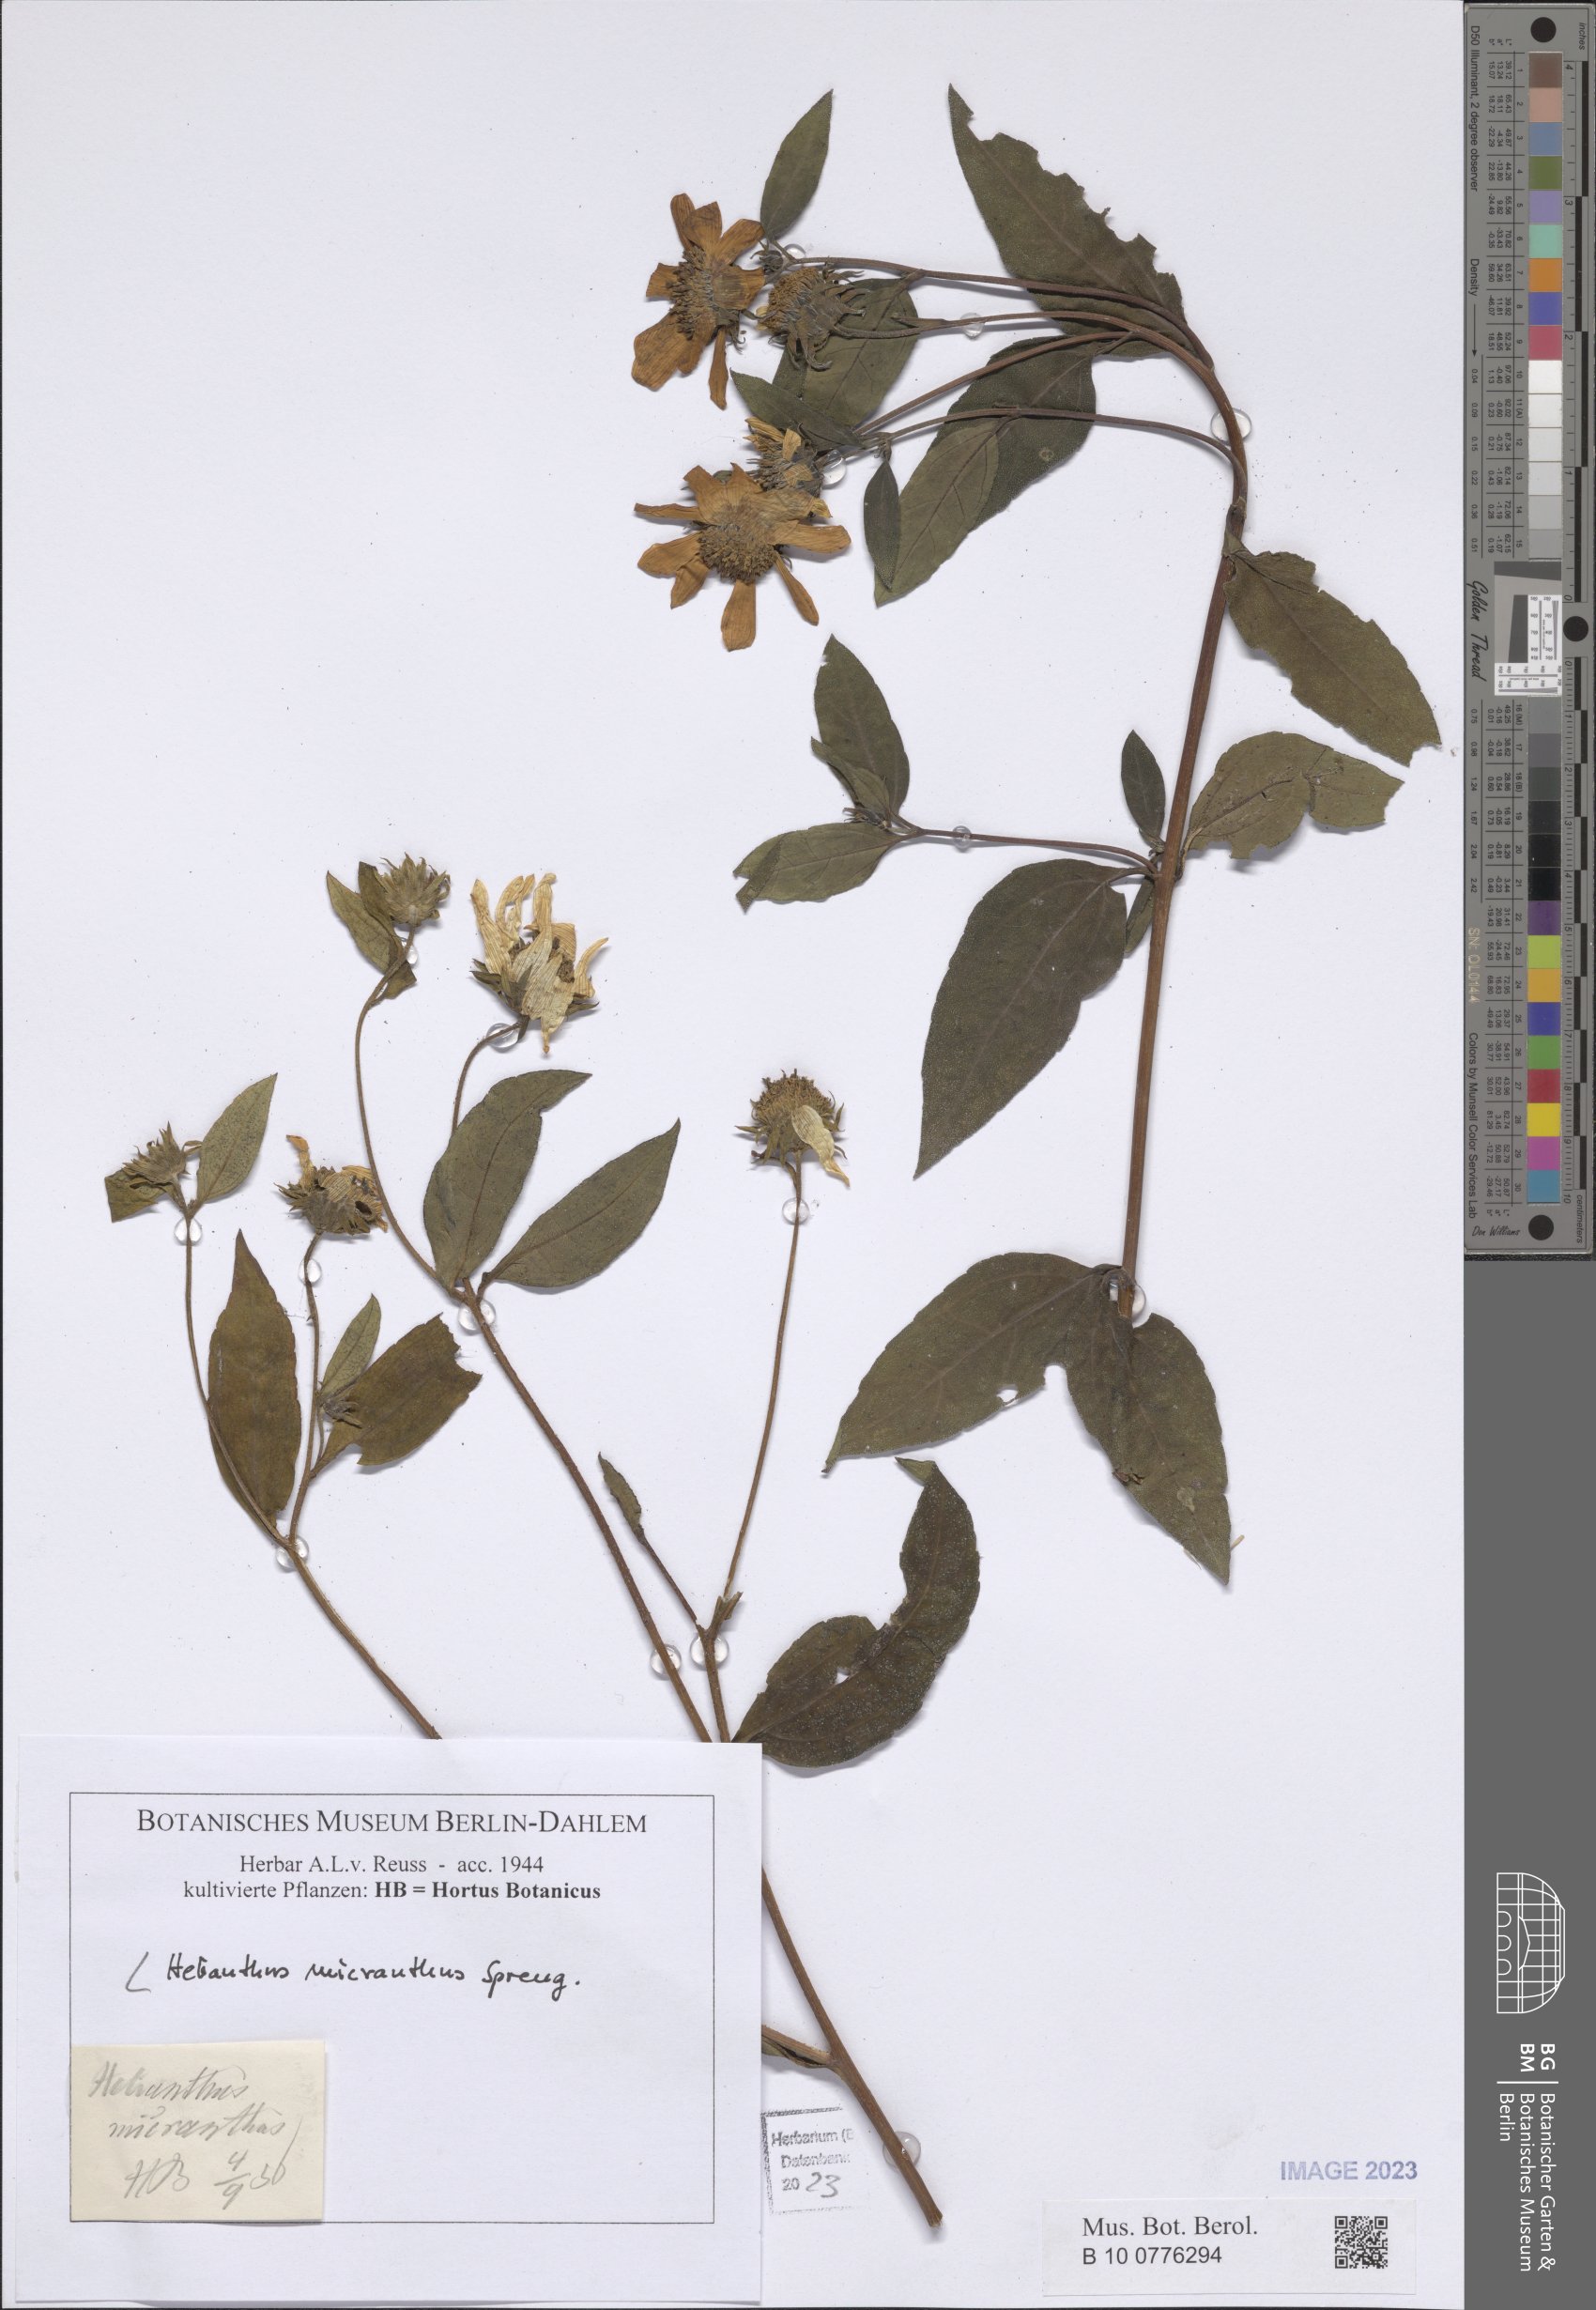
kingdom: Plantae
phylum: Tracheophyta
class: Magnoliopsida
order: Asterales
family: Asteraceae
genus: Helianthus
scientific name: Helianthus micranthus
